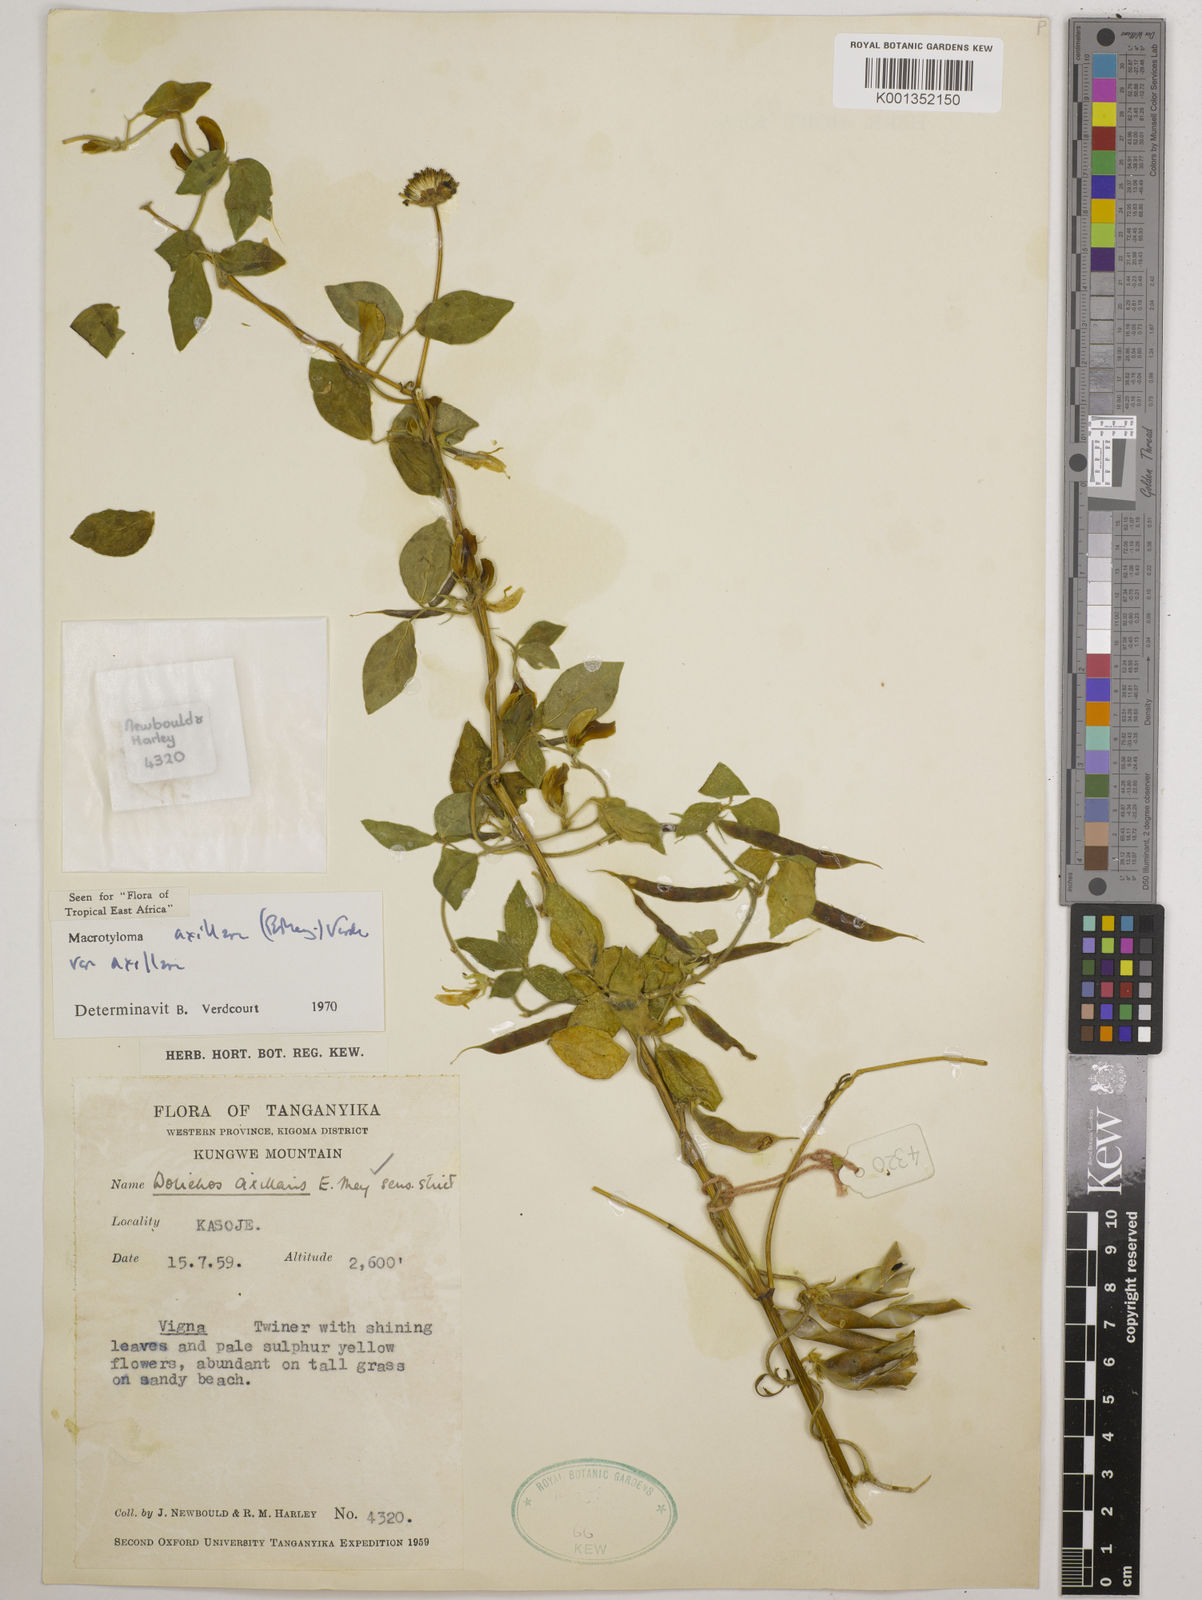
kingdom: Plantae
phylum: Tracheophyta
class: Magnoliopsida
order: Fabales
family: Fabaceae
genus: Macrotyloma
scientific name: Macrotyloma axillare
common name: Perennial horsegram
